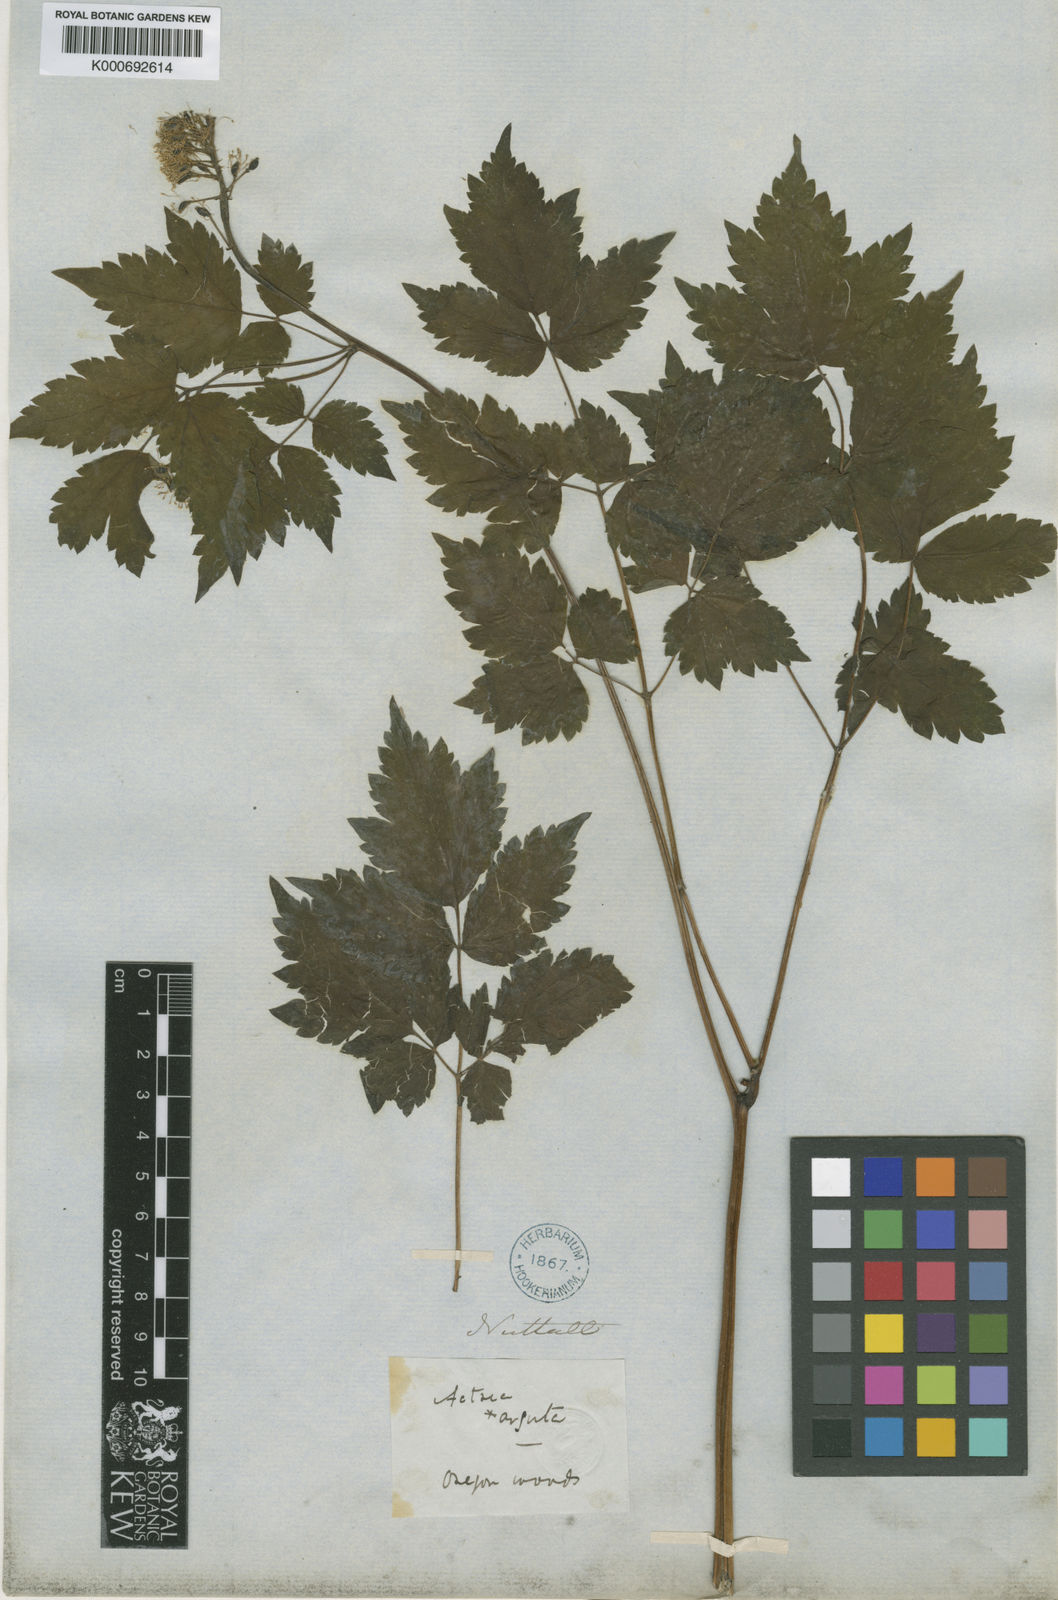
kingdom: Plantae
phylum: Tracheophyta
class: Magnoliopsida
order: Ranunculales
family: Ranunculaceae
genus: Actaea
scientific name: Actaea rubra
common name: Red baneberry
